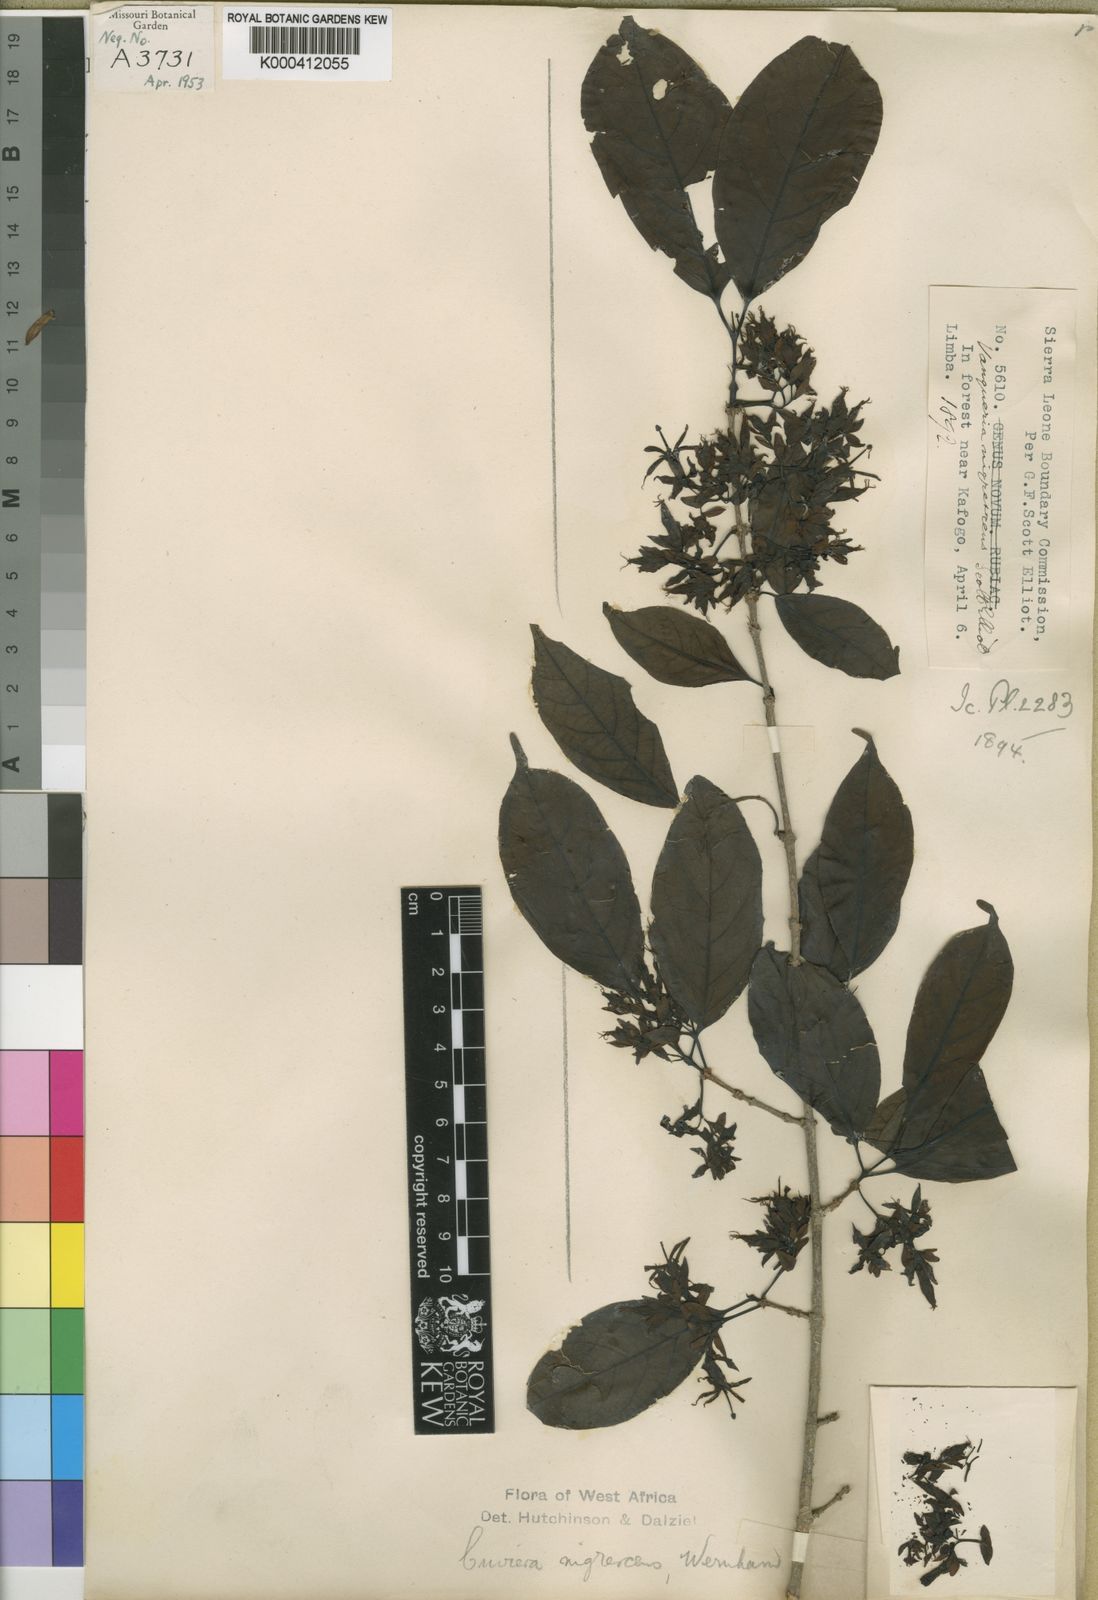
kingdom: Plantae
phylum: Tracheophyta
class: Magnoliopsida
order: Gentianales
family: Rubiaceae
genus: Cuviera
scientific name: Cuviera nigrescens
